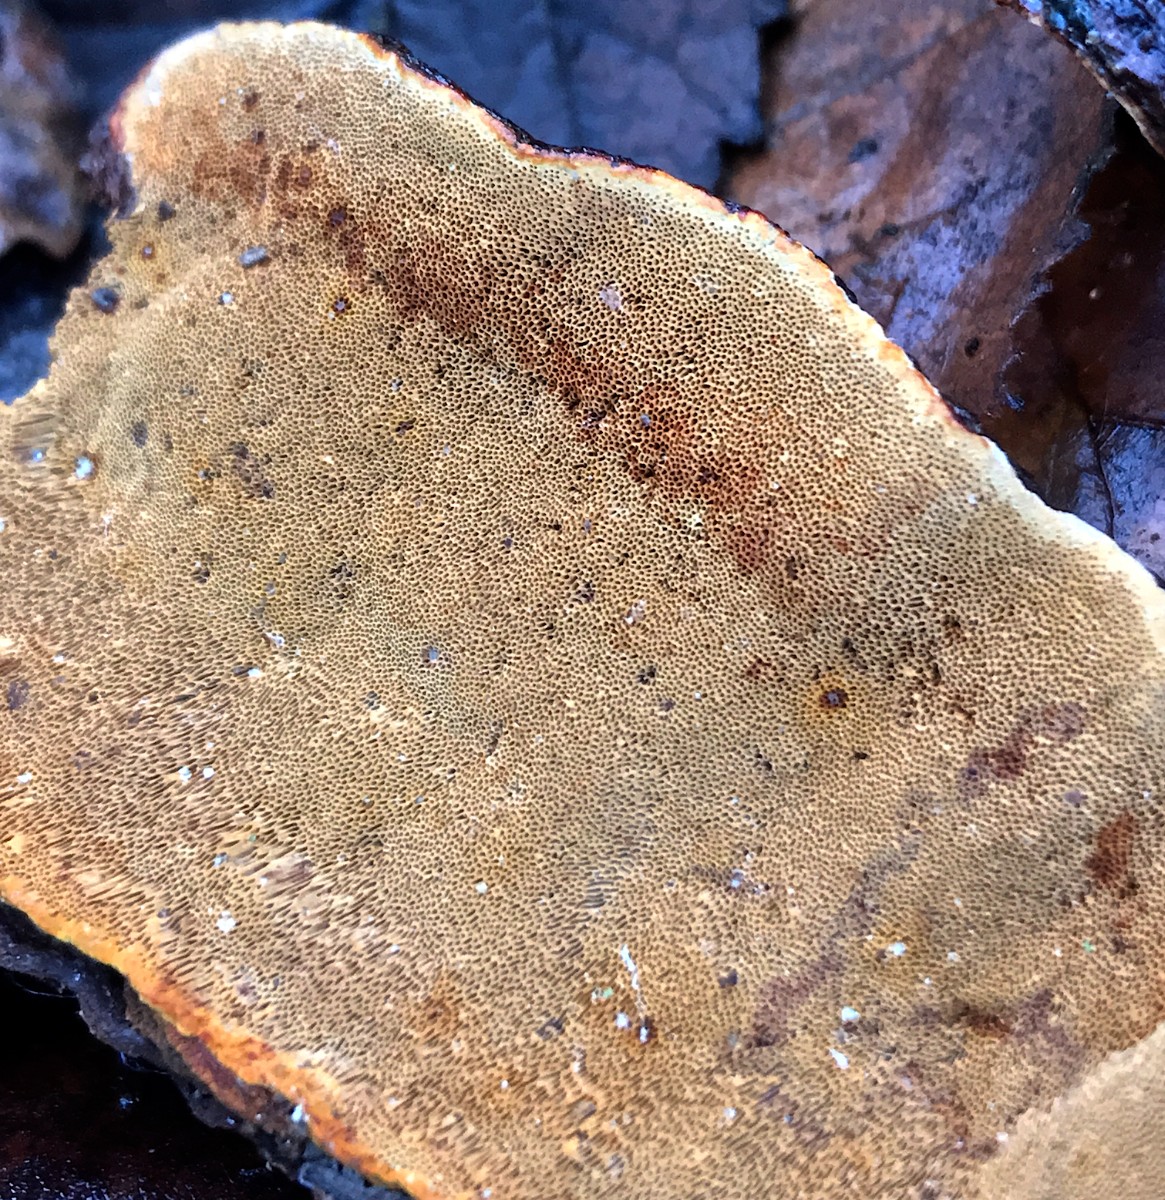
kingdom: Fungi
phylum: Basidiomycota
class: Agaricomycetes
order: Hymenochaetales
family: Hymenochaetaceae
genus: Phellinopsis
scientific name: Phellinopsis conchata
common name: pile-ildporesvamp
